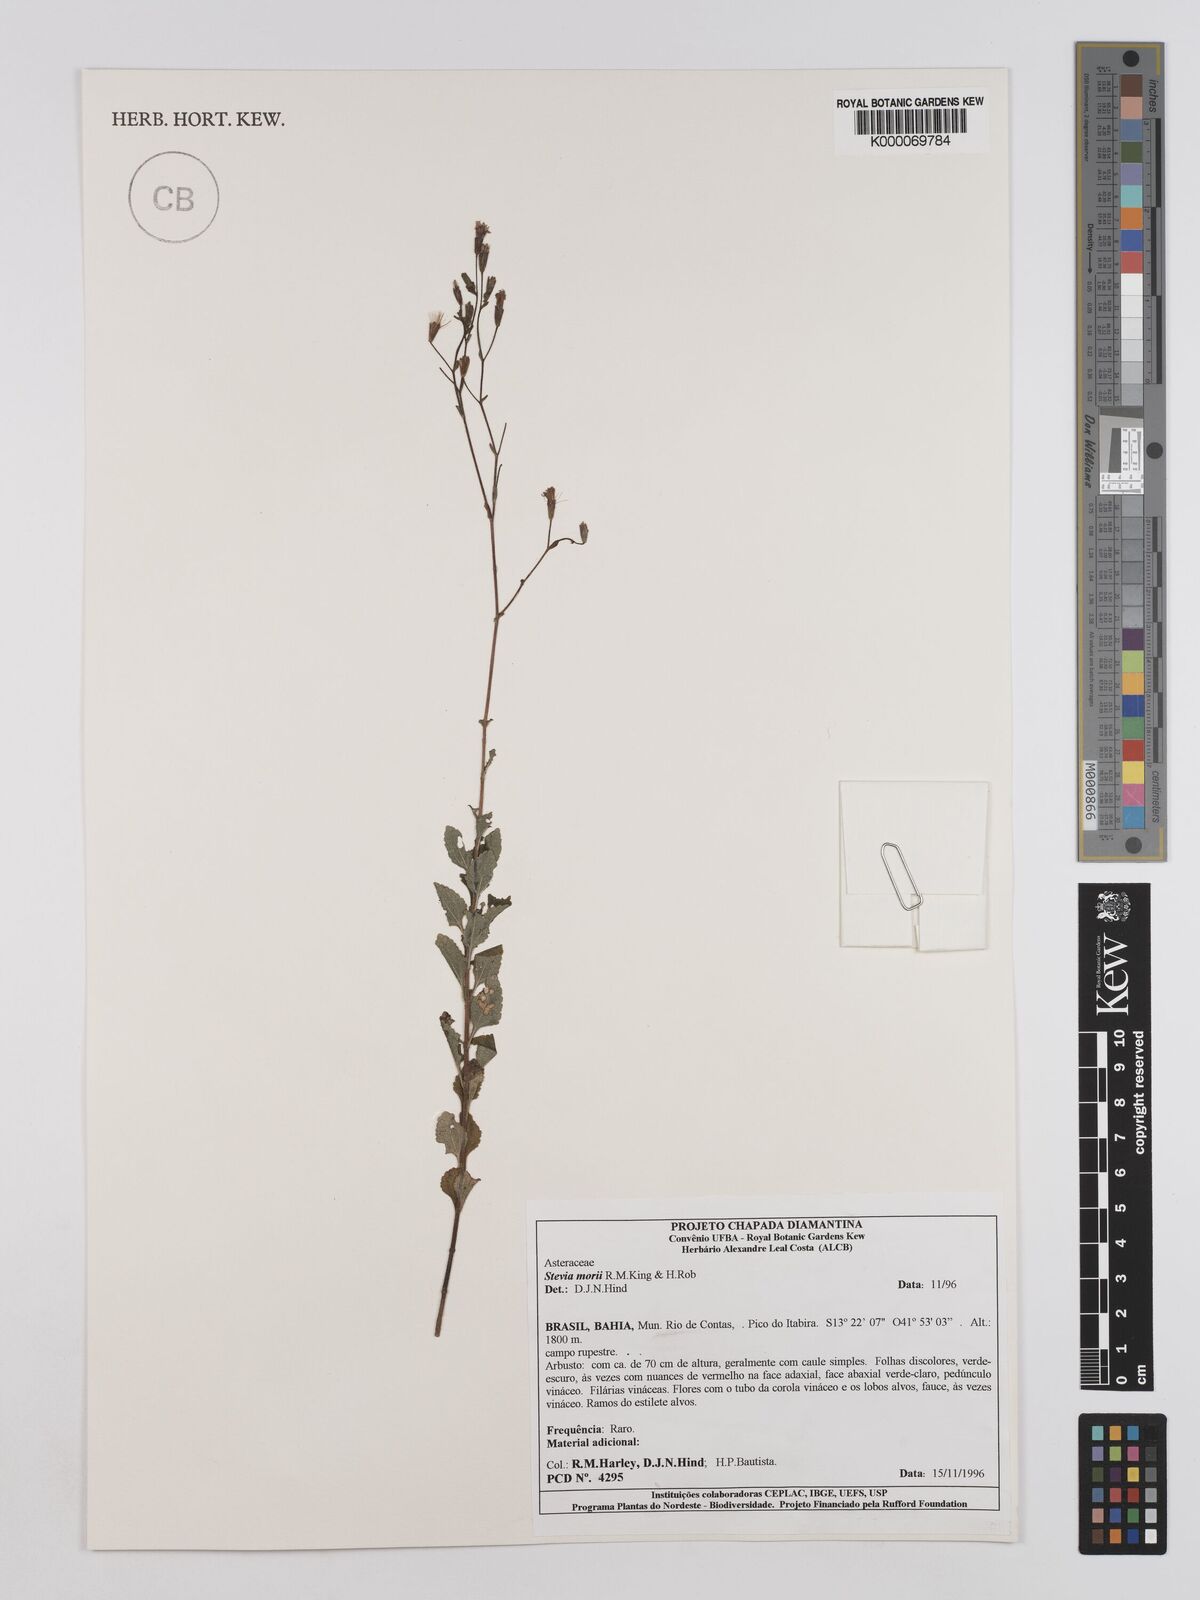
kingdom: Plantae
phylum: Tracheophyta
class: Magnoliopsida
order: Asterales
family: Asteraceae
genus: Stevia
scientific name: Stevia morii
